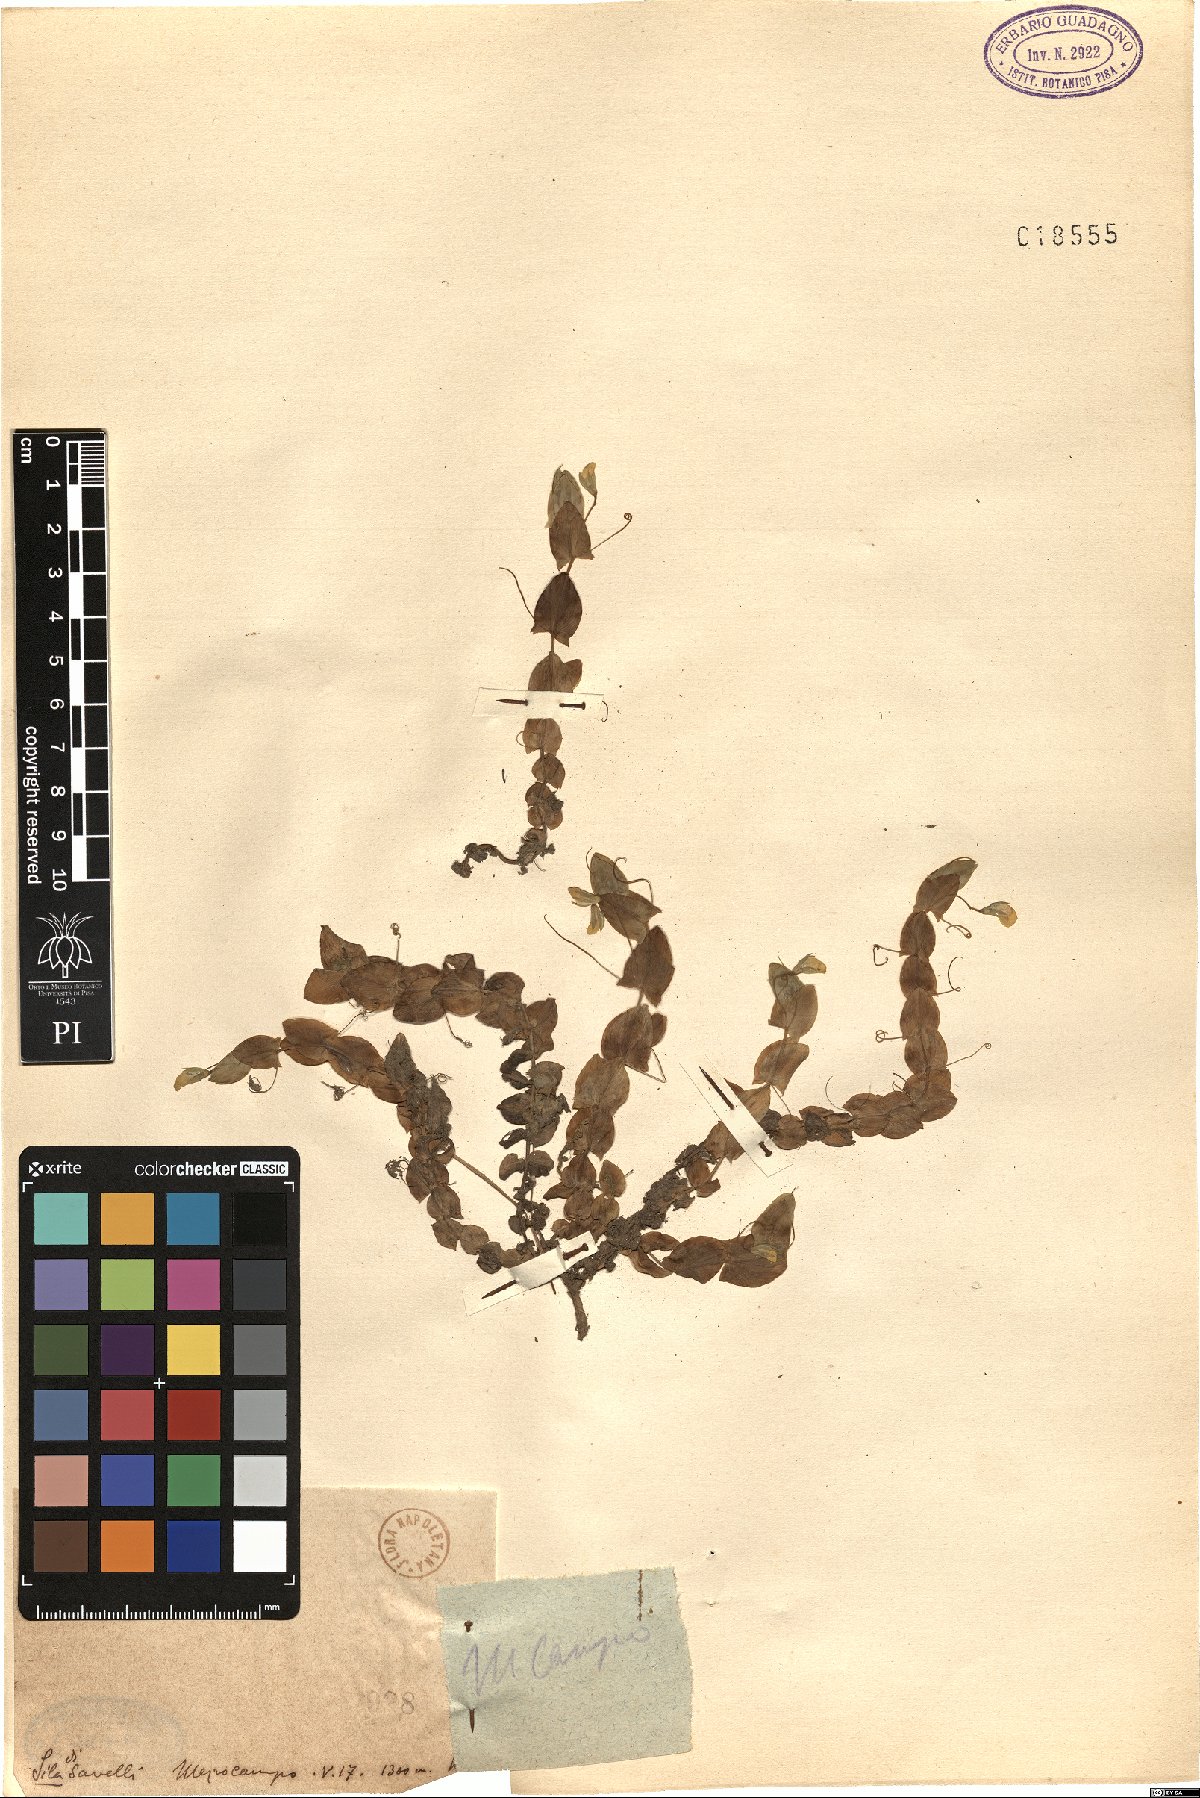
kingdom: Plantae
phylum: Tracheophyta
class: Magnoliopsida
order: Fabales
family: Fabaceae
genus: Lathyrus
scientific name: Lathyrus
